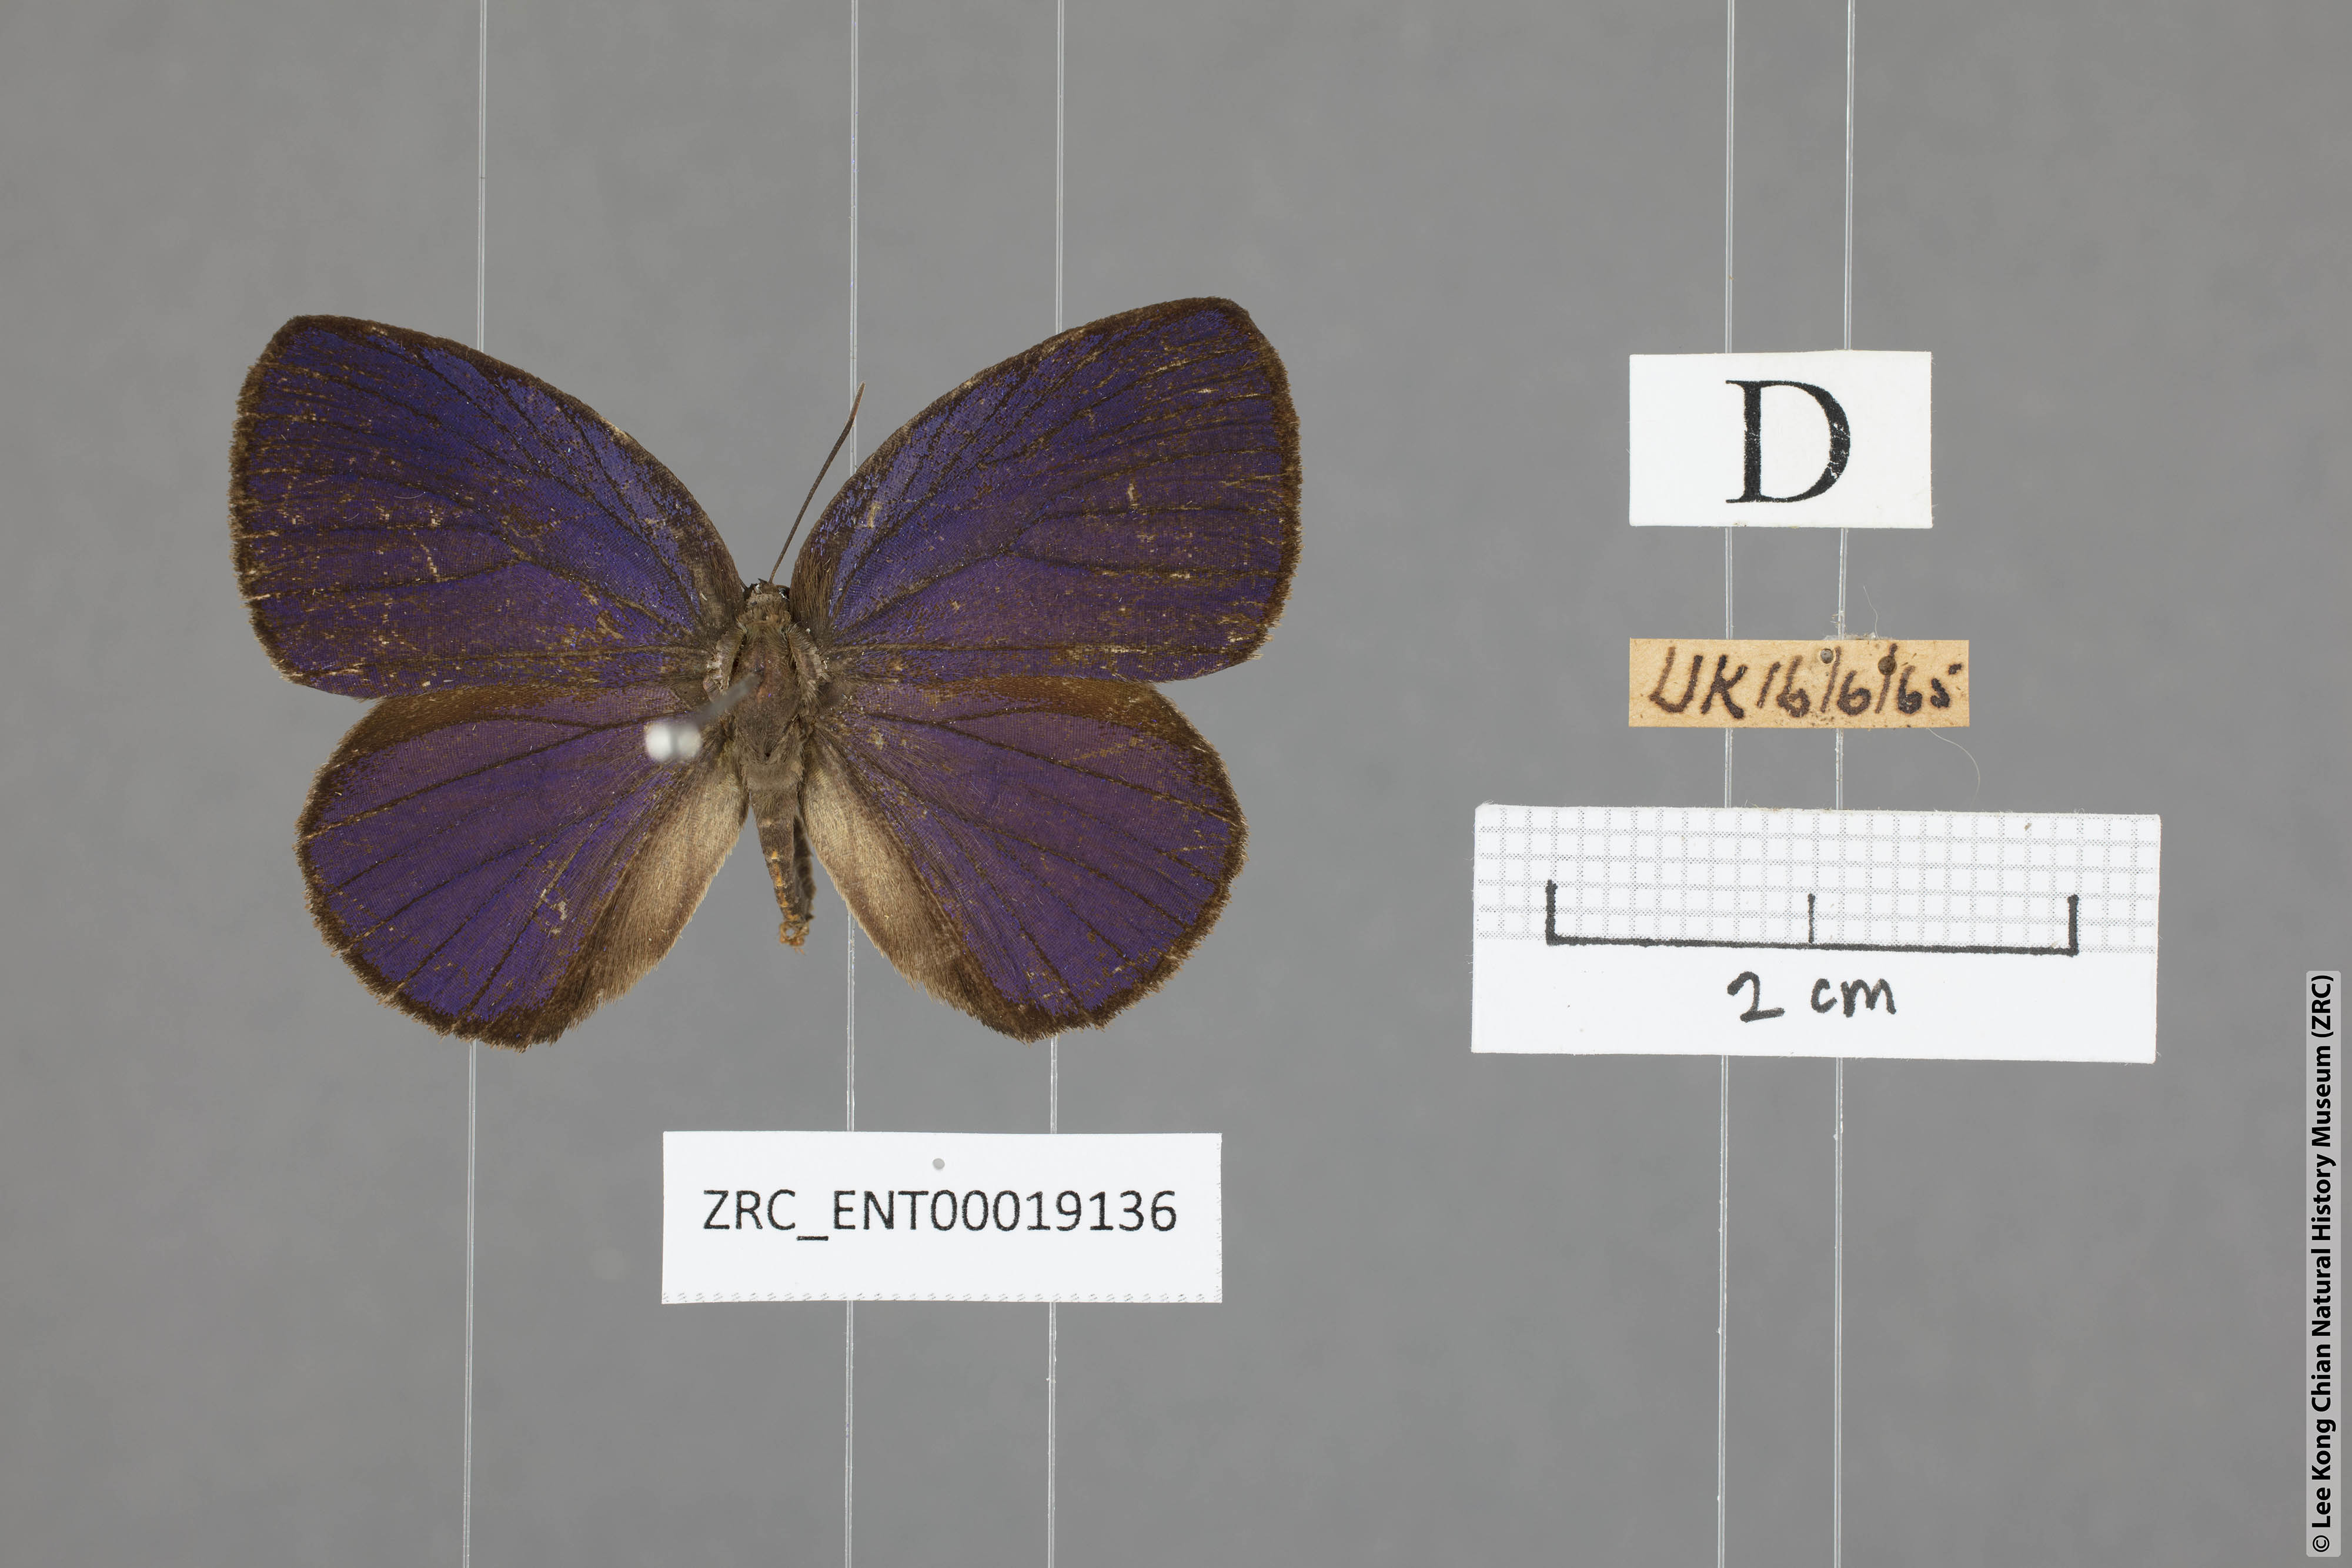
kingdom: Animalia
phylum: Arthropoda
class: Insecta
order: Lepidoptera
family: Lycaenidae
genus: Arhopala
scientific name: Arhopala amphimuta
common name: Broad yellow oakblue
